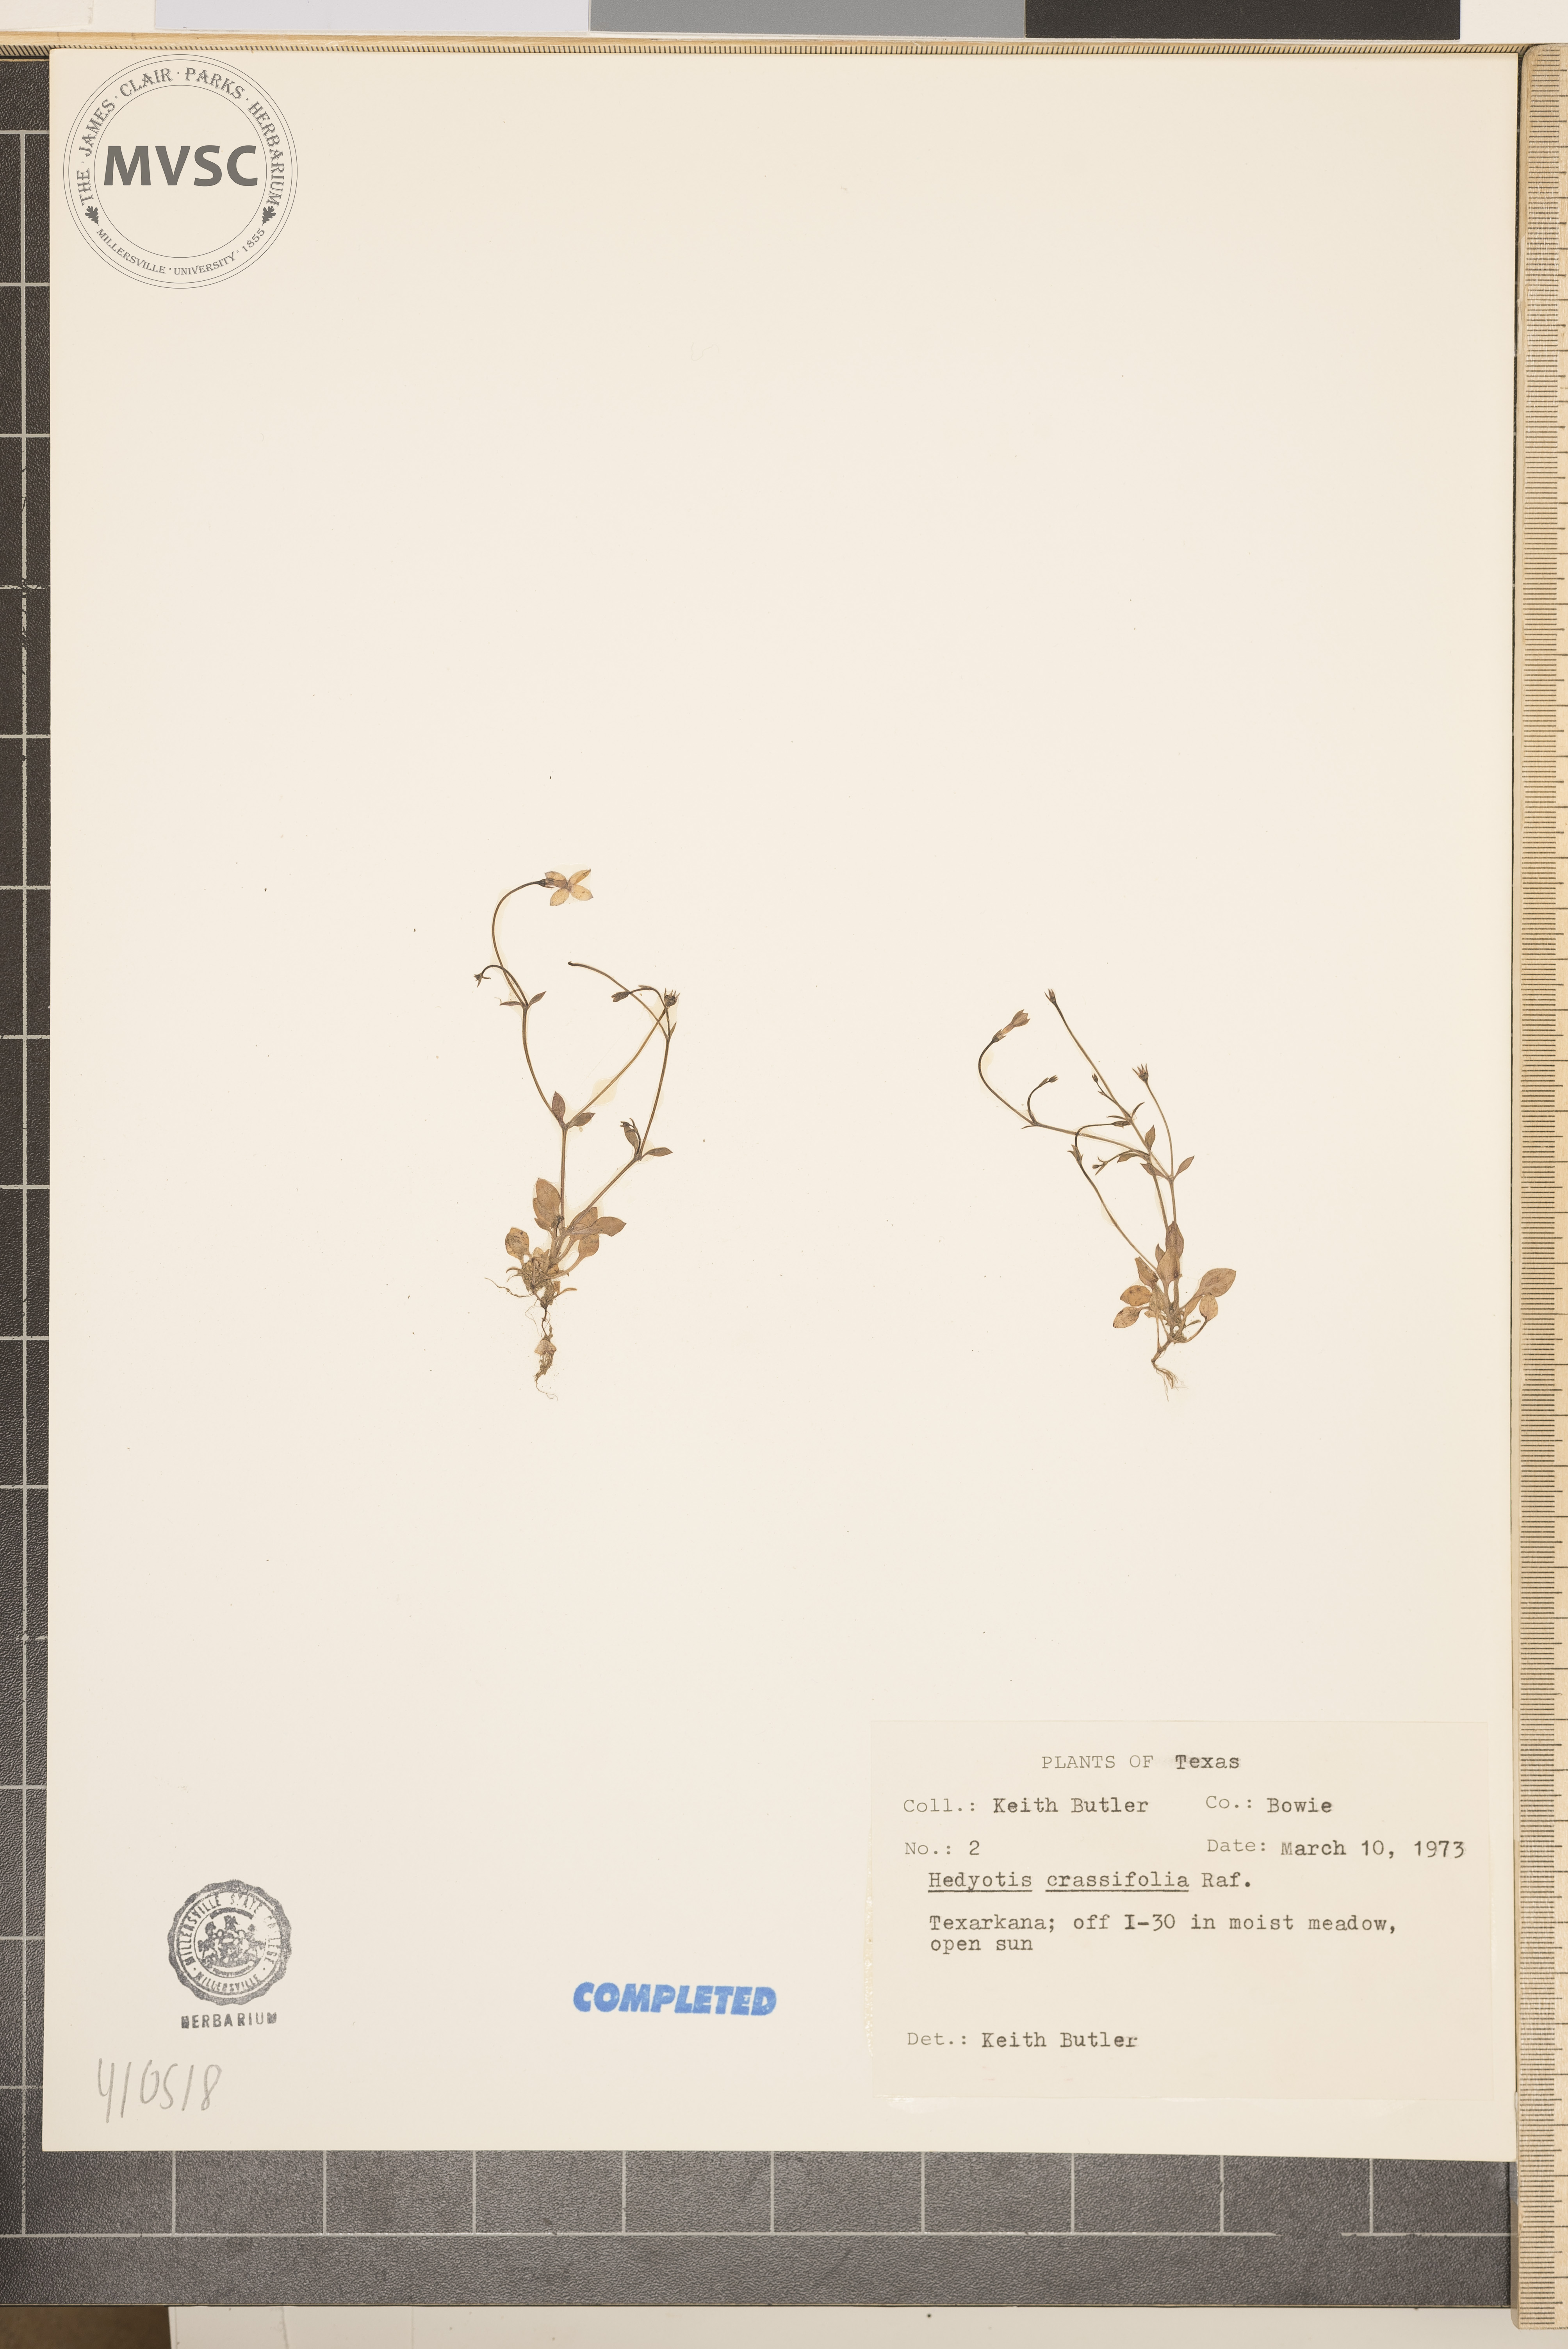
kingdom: Plantae
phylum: Tracheophyta
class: Magnoliopsida
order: Gentianales
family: Rubiaceae
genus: Hedyotis
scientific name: Hedyotis crassifolia
